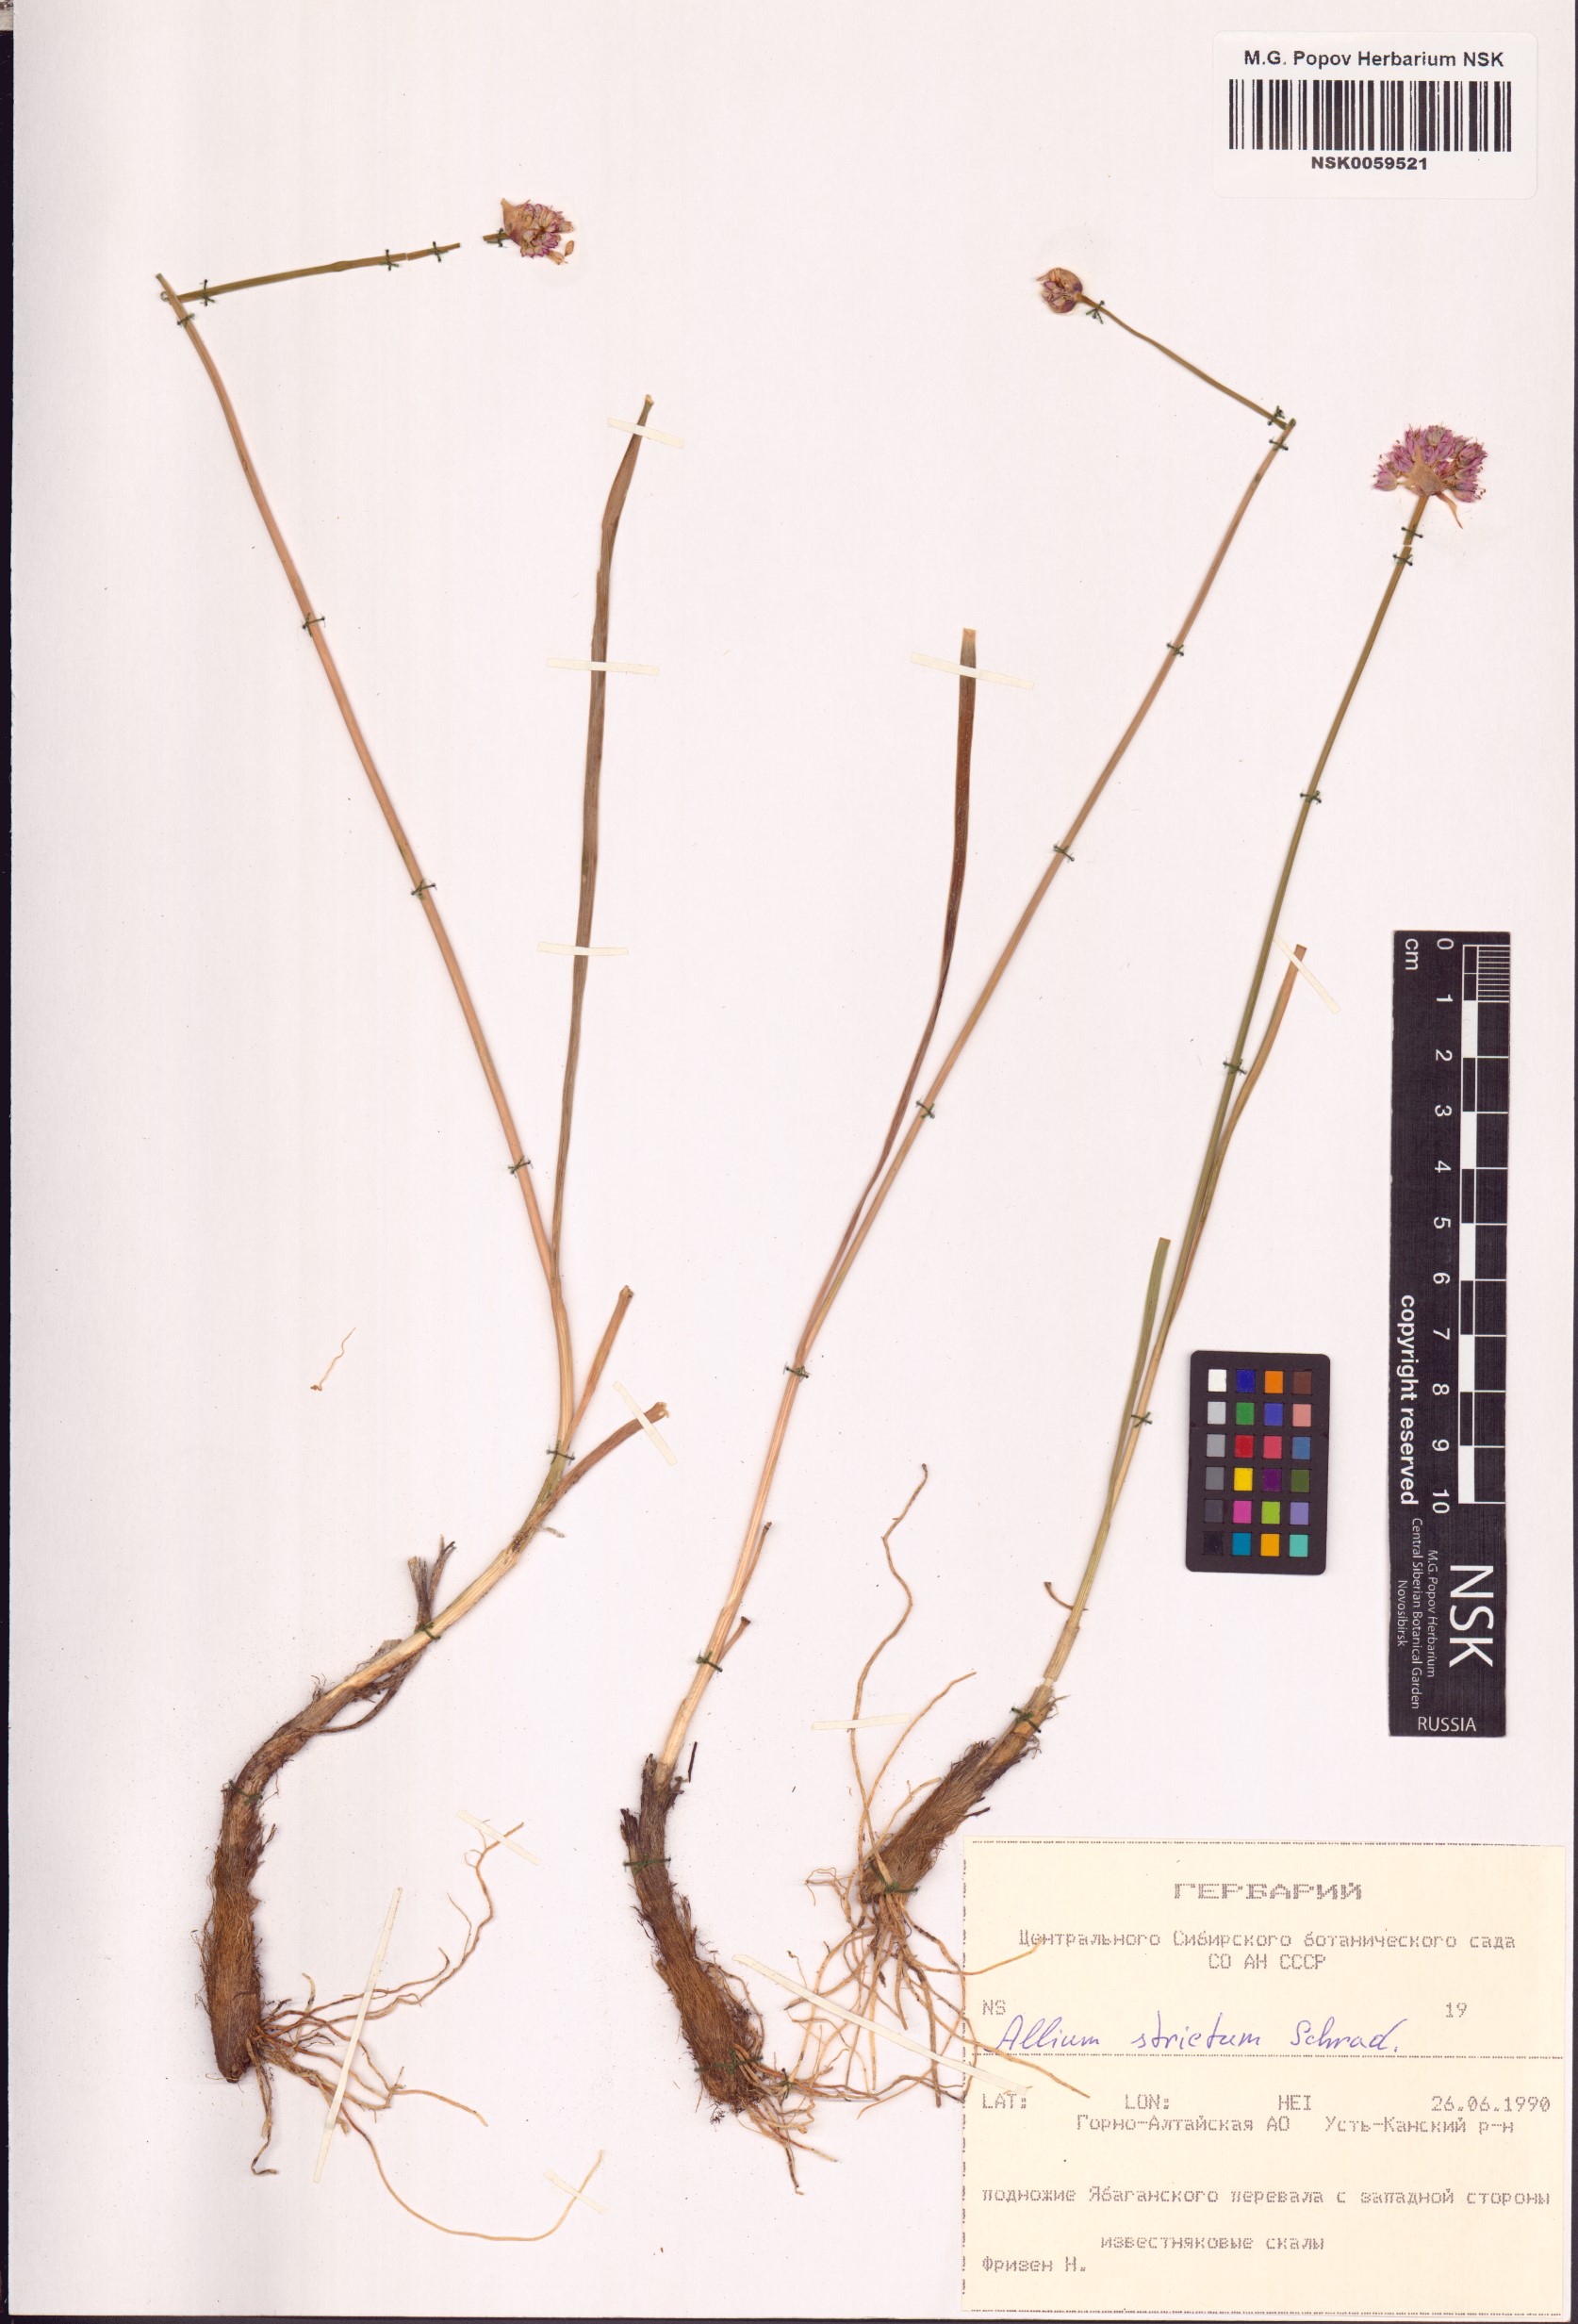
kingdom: Plantae
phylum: Tracheophyta
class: Liliopsida
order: Asparagales
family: Amaryllidaceae
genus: Allium
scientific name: Allium strictum
